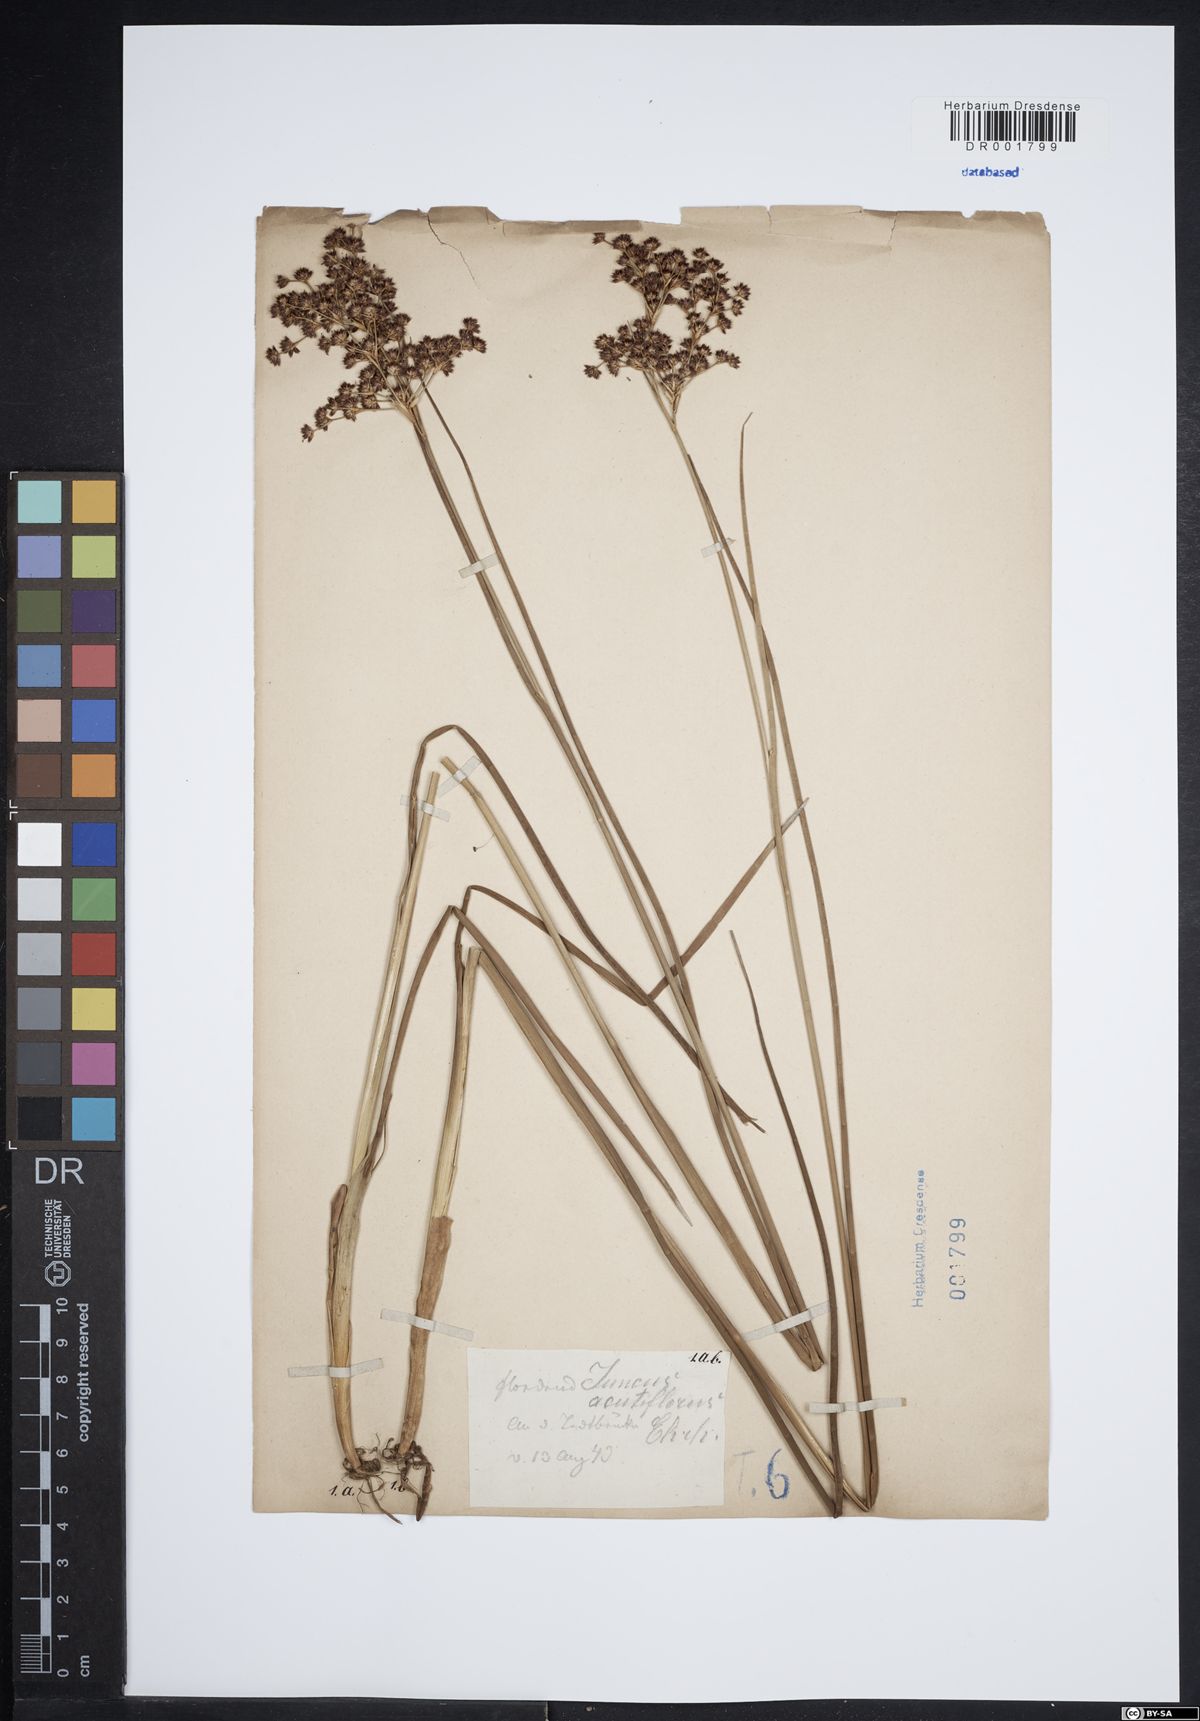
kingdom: Plantae
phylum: Tracheophyta
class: Liliopsida
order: Poales
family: Juncaceae
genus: Juncus
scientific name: Juncus acutiflorus
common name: Sharp-flowered rush
